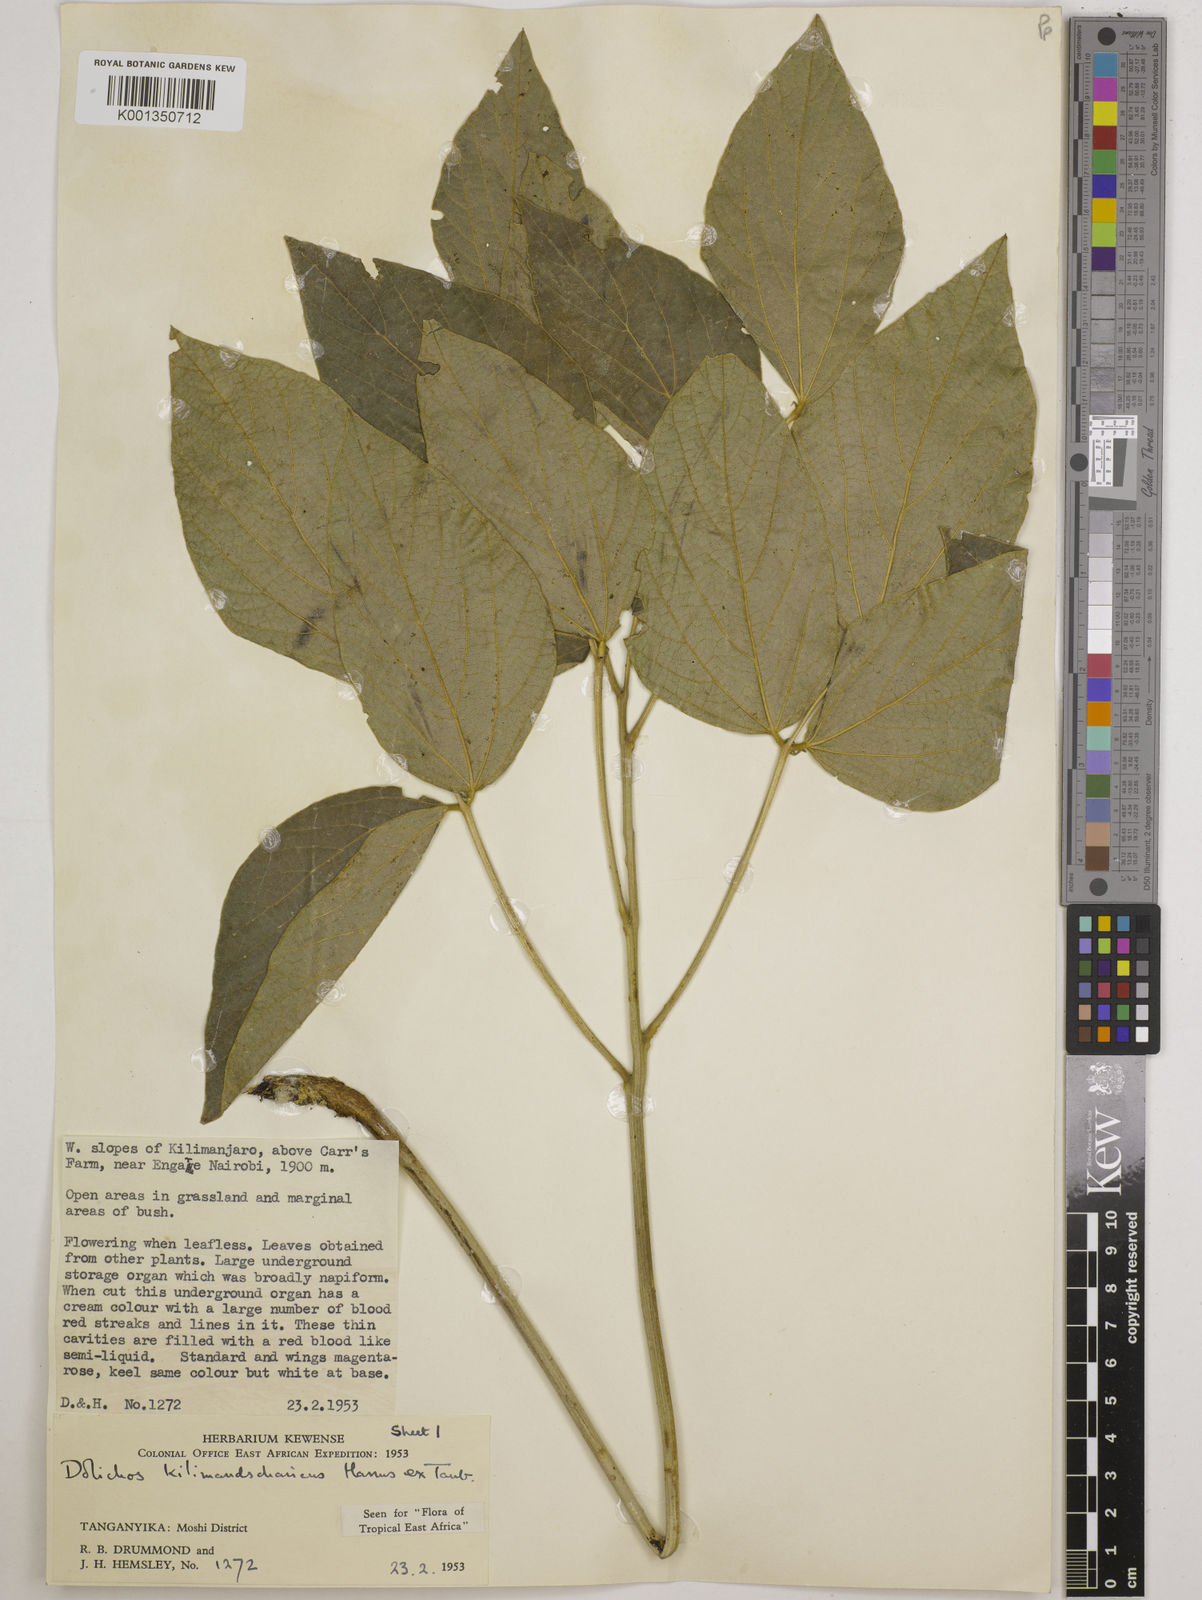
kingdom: Plantae
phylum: Tracheophyta
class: Magnoliopsida
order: Fabales
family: Fabaceae
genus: Dolichos
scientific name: Dolichos kilimandscharicus
